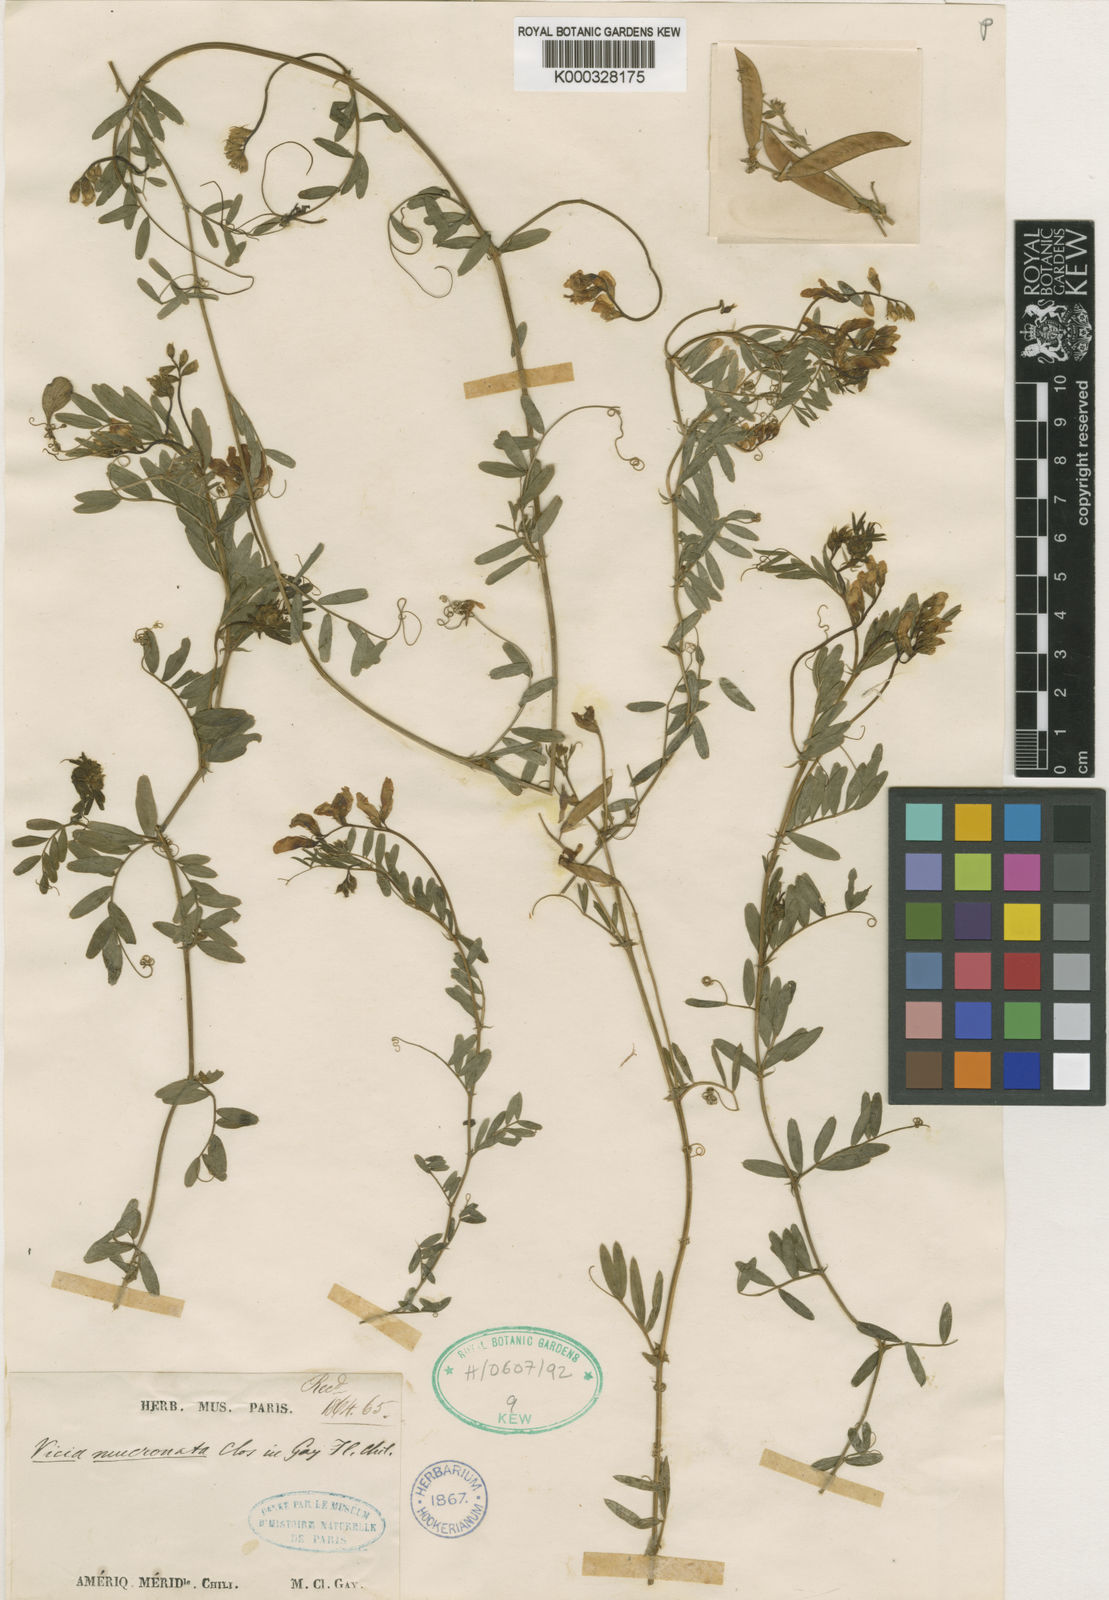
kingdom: Plantae
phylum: Tracheophyta
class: Magnoliopsida
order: Fabales
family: Fabaceae
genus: Vicia
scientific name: Vicia mucronata
